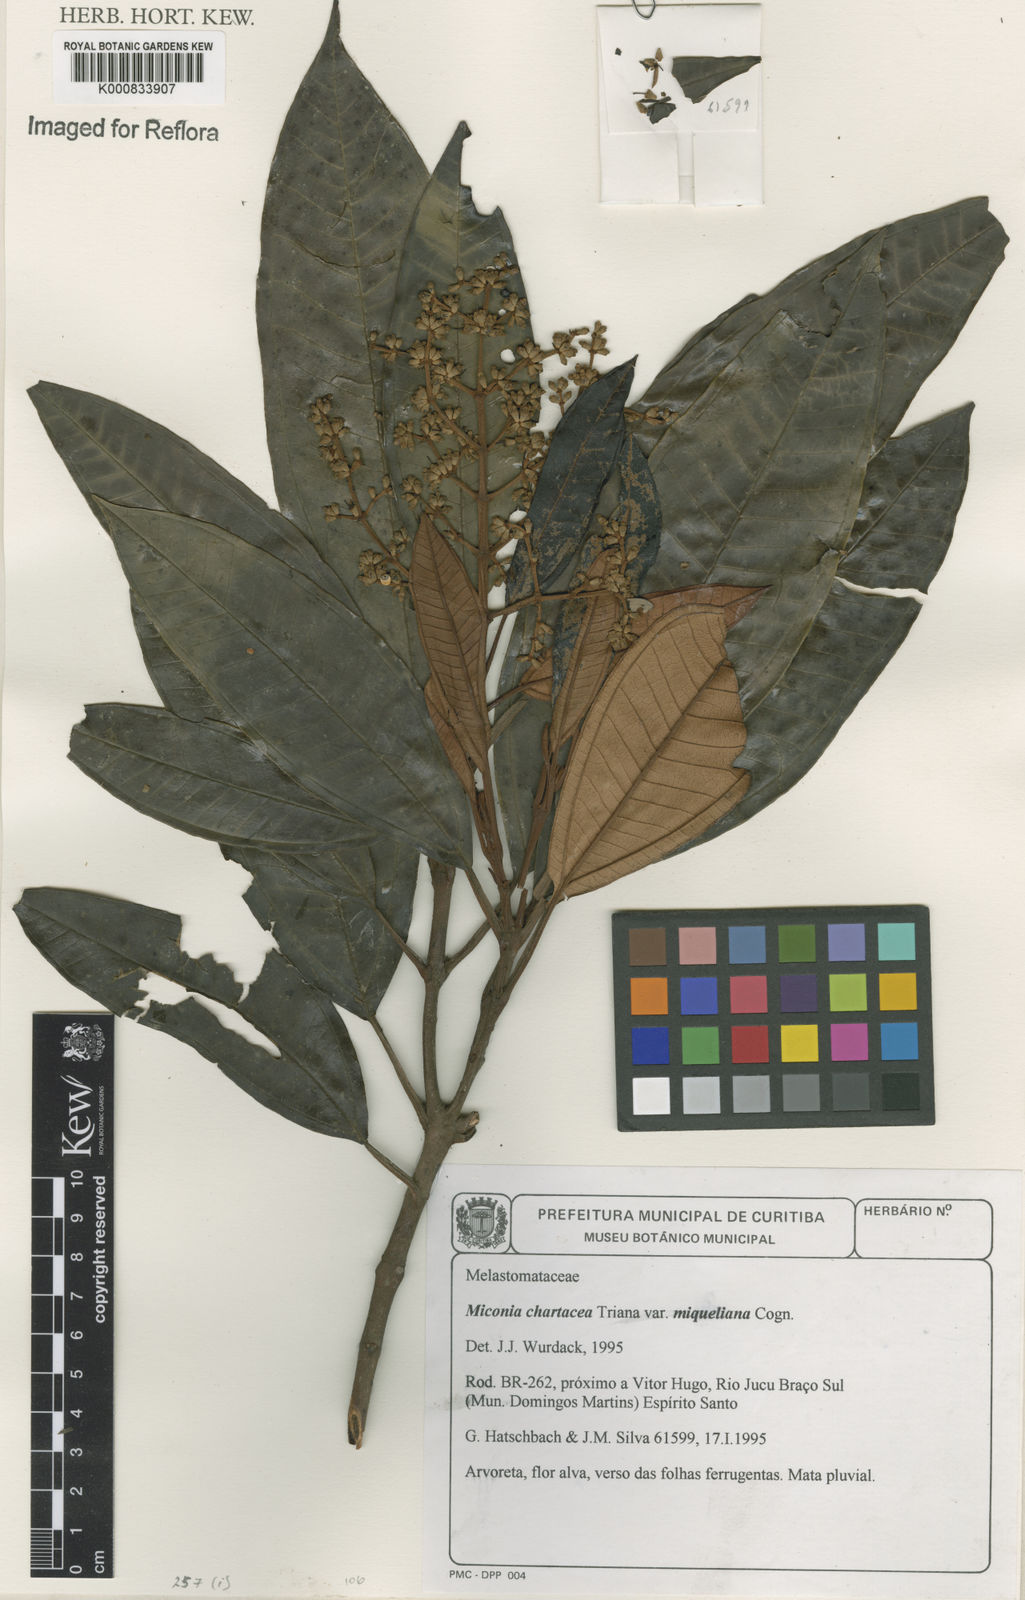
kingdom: Plantae
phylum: Tracheophyta
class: Magnoliopsida
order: Myrtales
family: Melastomataceae
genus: Miconia
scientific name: Miconia chartacea
